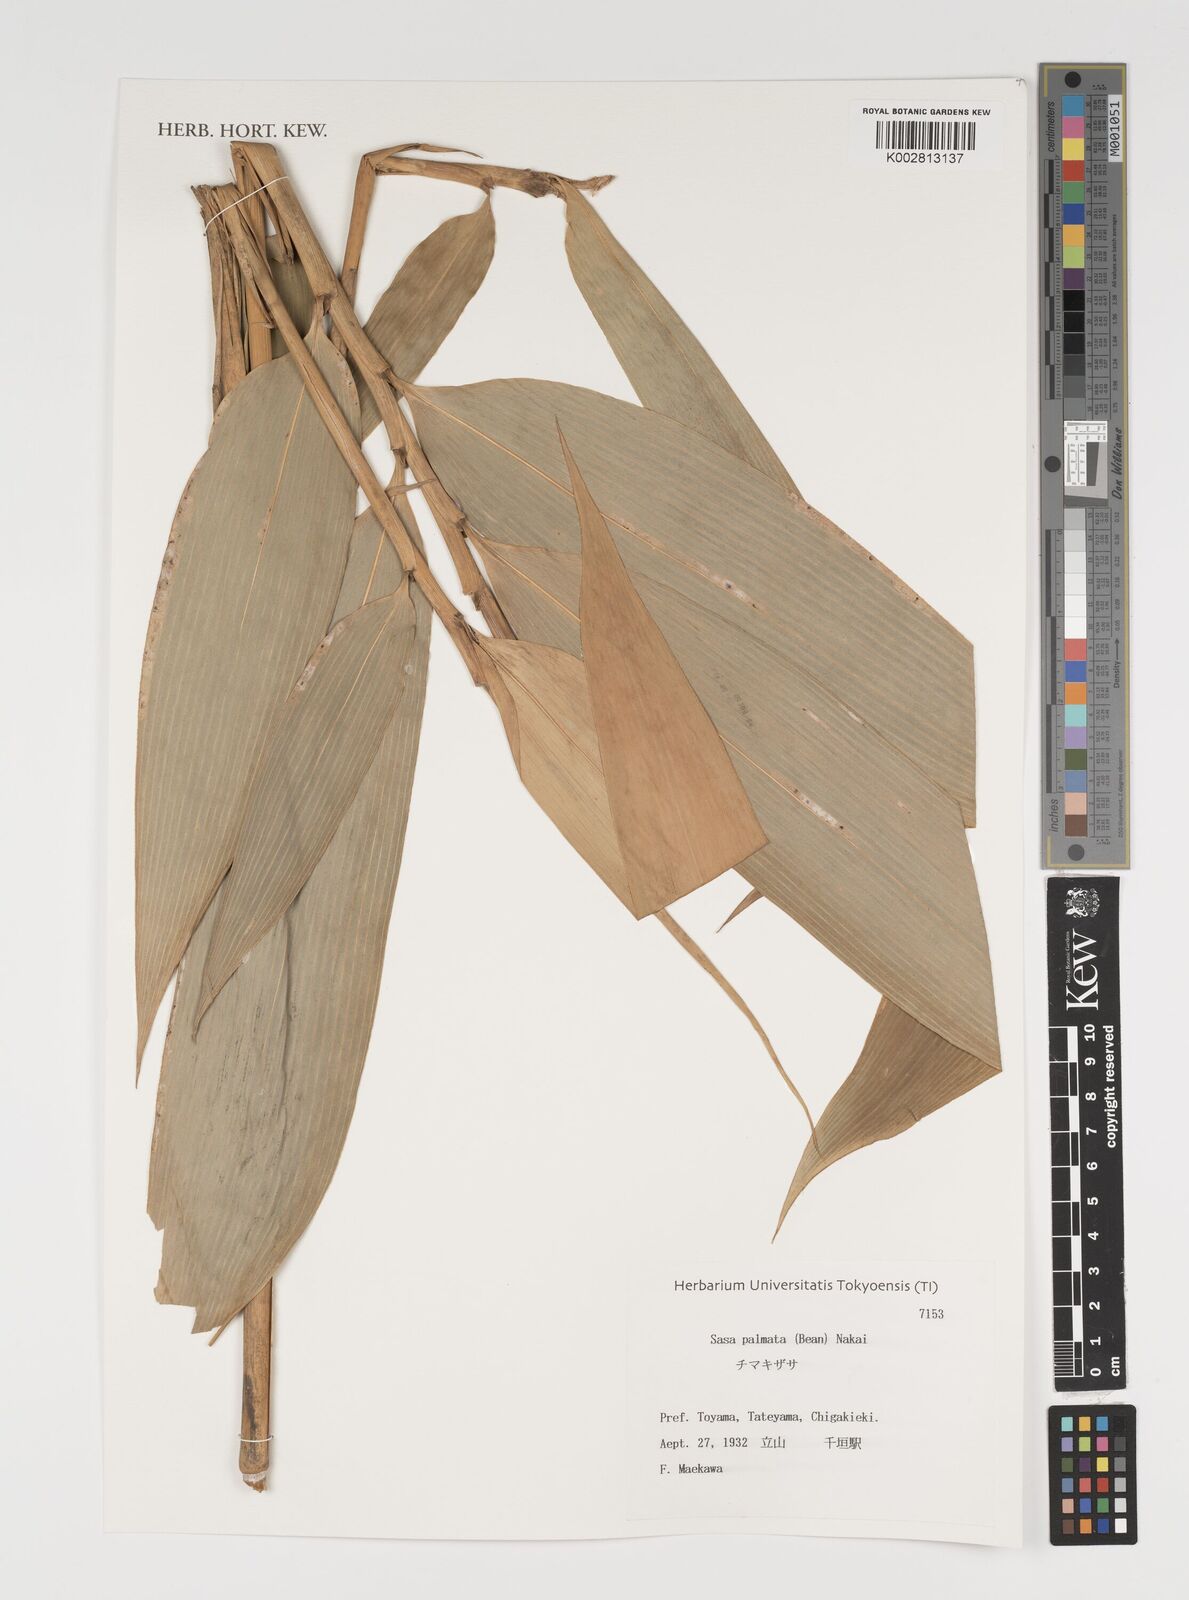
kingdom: Plantae
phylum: Tracheophyta
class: Liliopsida
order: Poales
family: Poaceae
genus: Sasa
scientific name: Sasa palmata
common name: Broad-leaved bamboo
